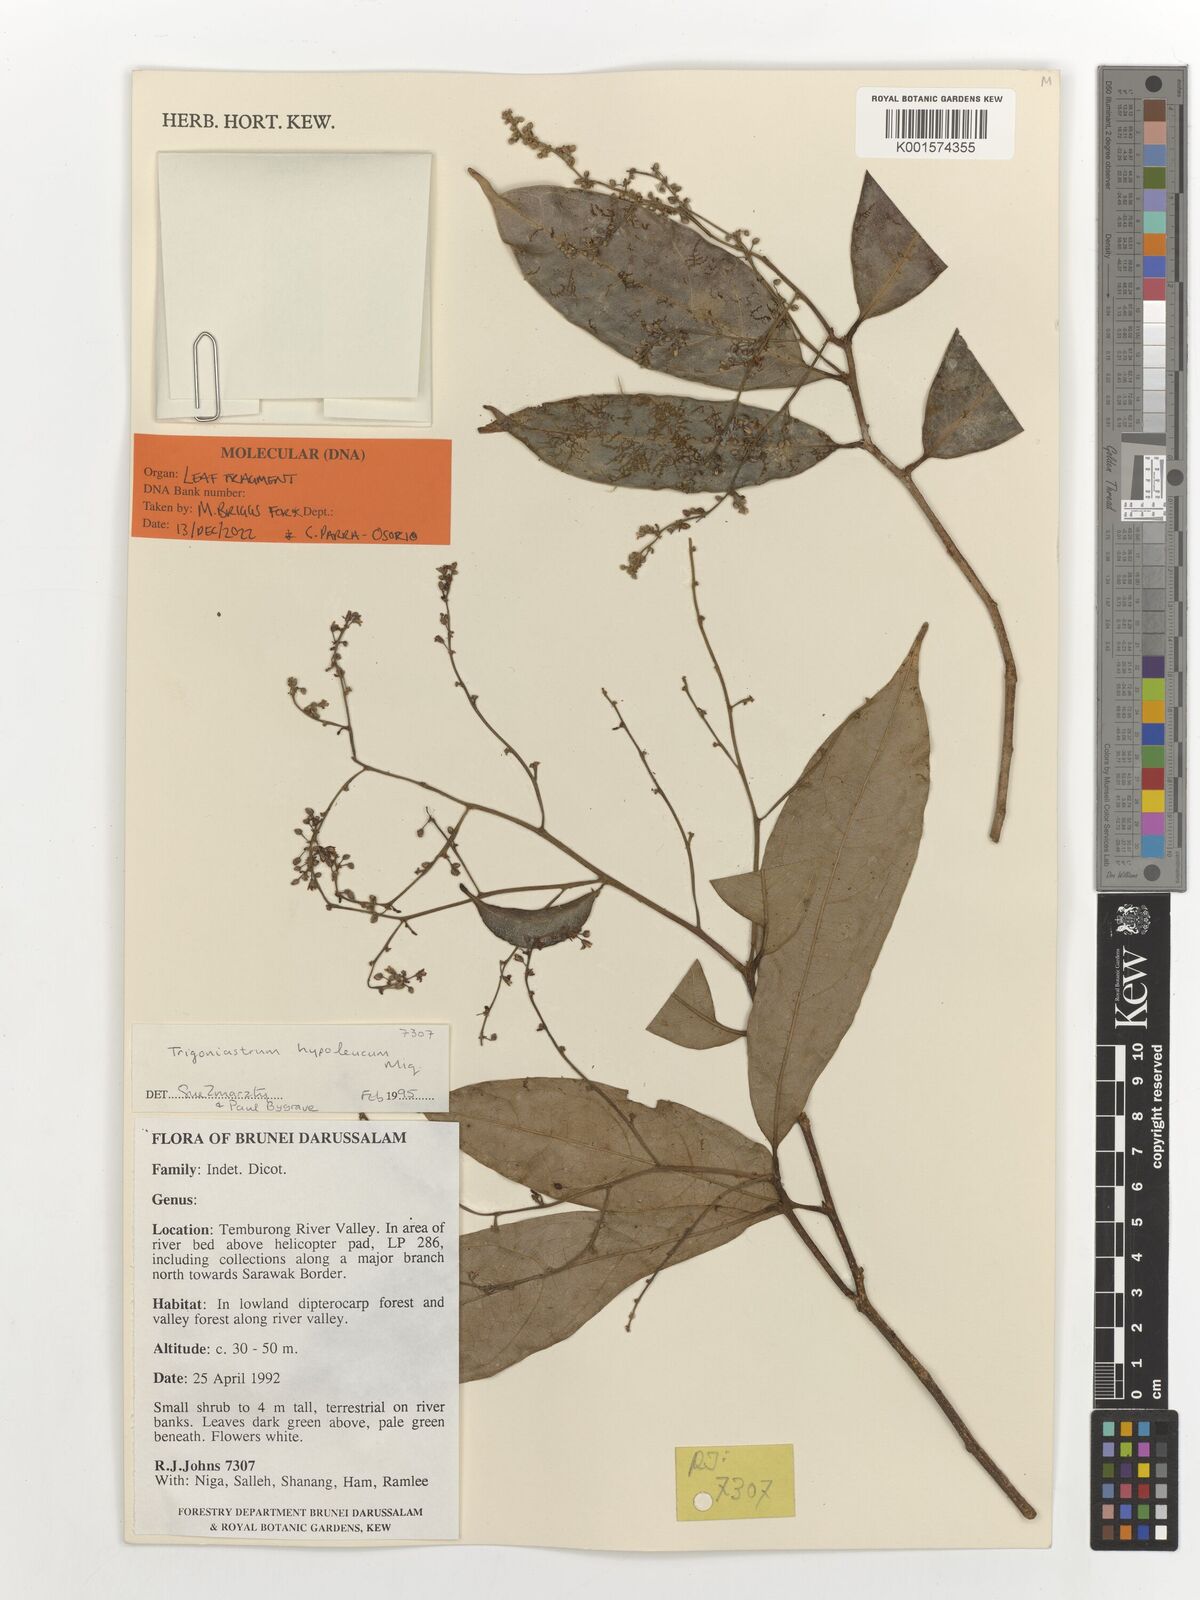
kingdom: Plantae
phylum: Tracheophyta
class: Magnoliopsida
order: Malpighiales
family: Trigoniaceae
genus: Trigoniastrum
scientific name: Trigoniastrum hypoleucum
